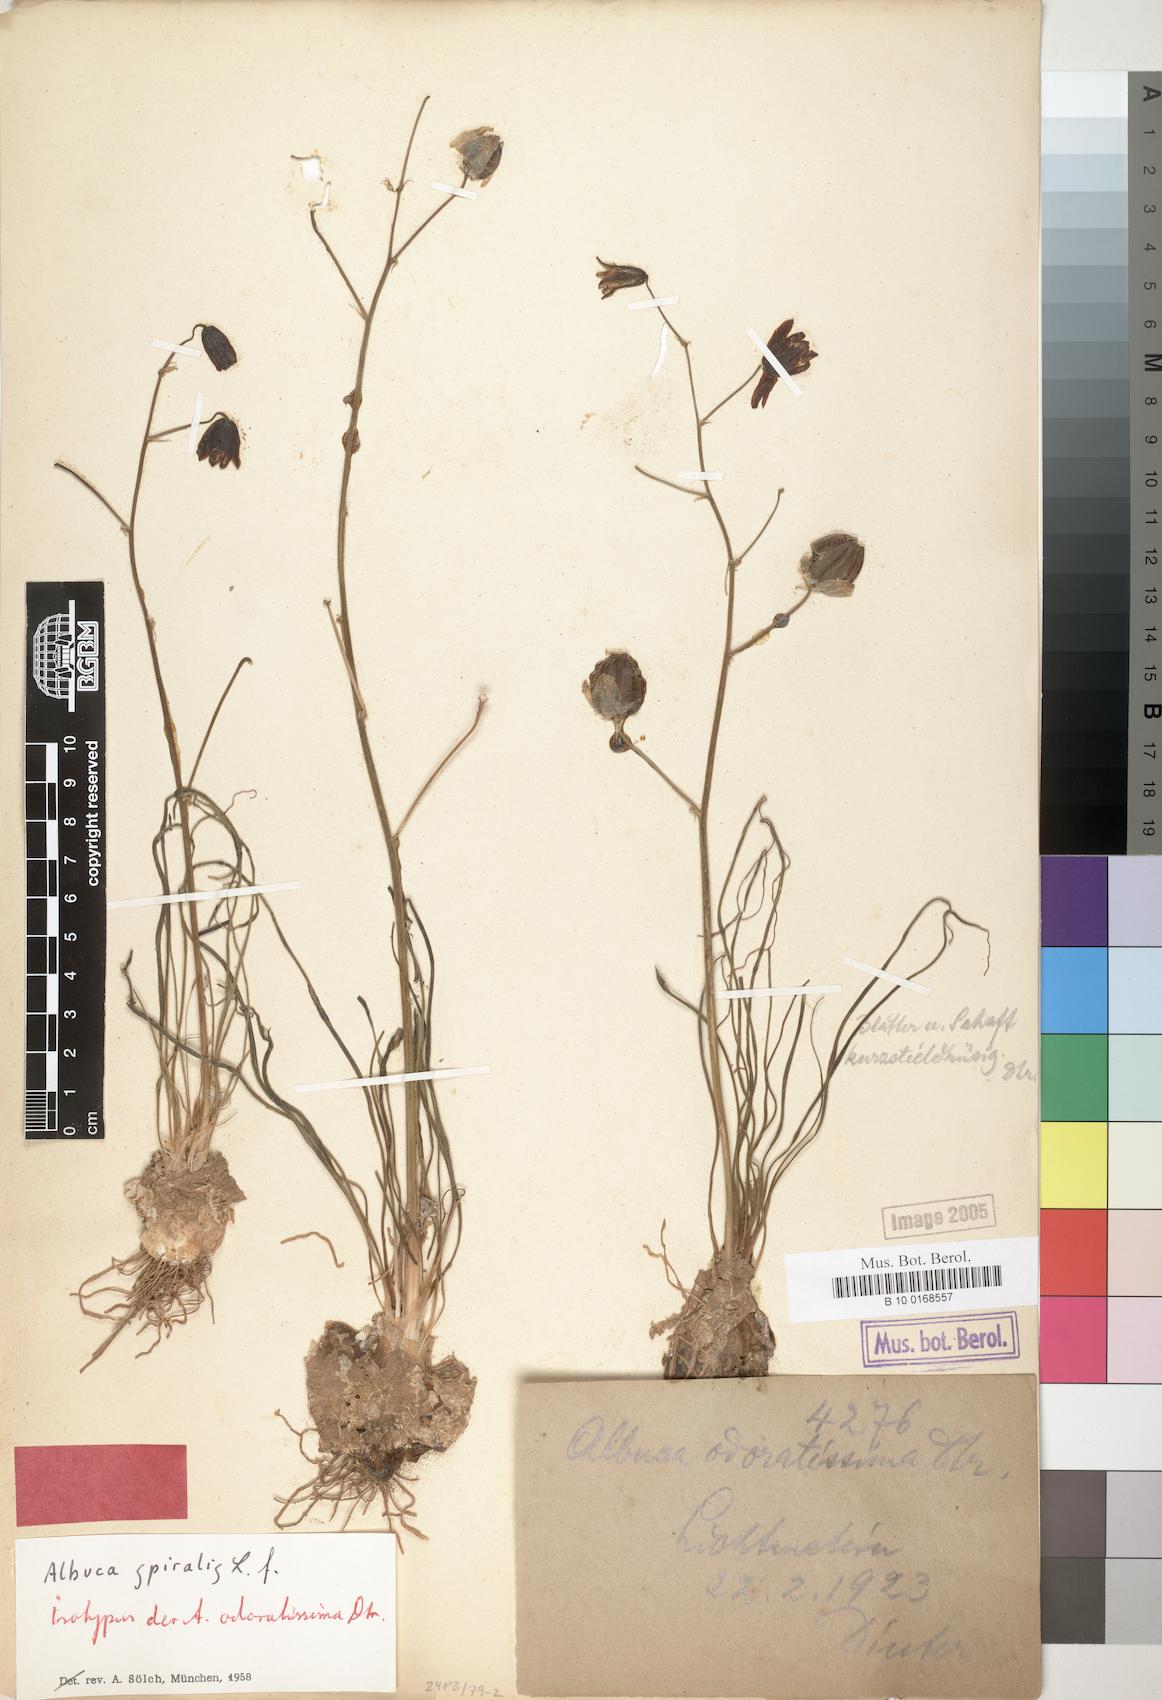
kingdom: Plantae
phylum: Tracheophyta
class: Liliopsida
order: Asparagales
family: Asparagaceae
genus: Albuca
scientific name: Albuca spiralis
